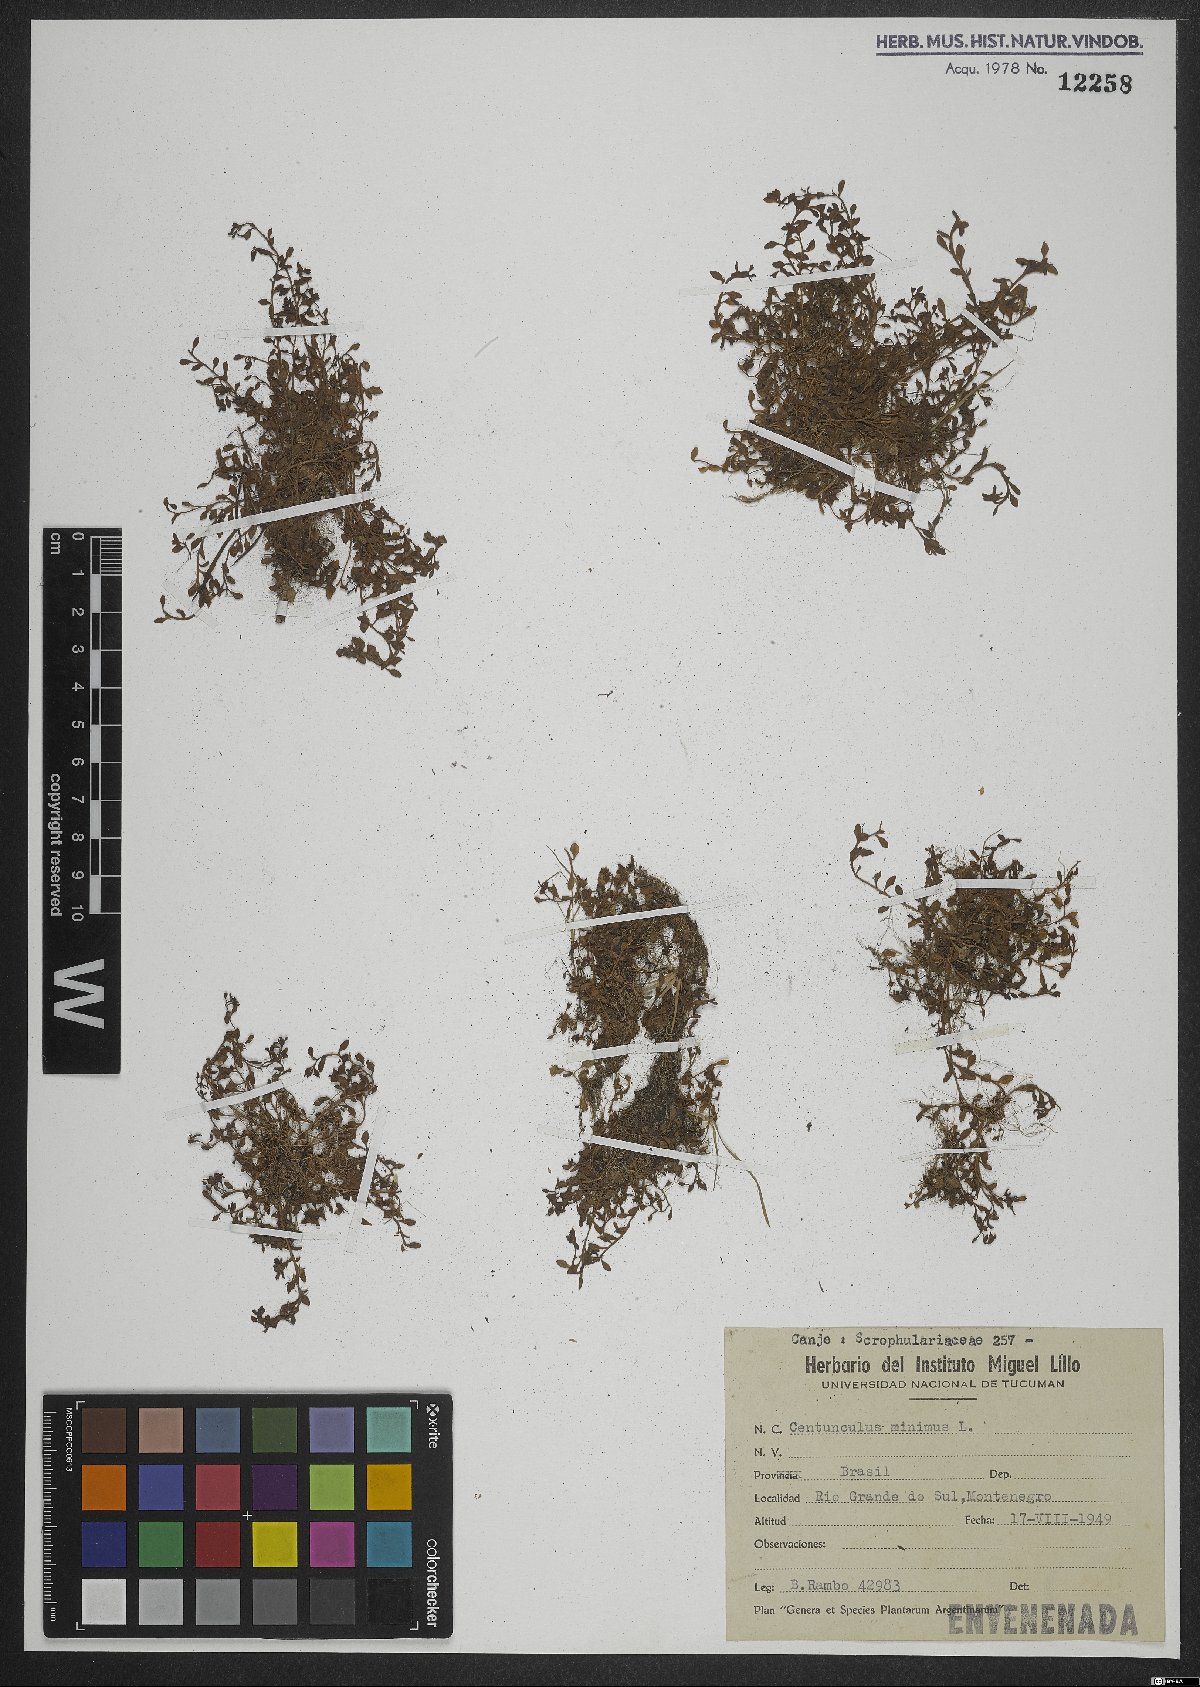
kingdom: Plantae
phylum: Tracheophyta
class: Magnoliopsida
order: Ericales
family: Primulaceae
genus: Lysimachia
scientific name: Lysimachia minima
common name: Chaffweed
